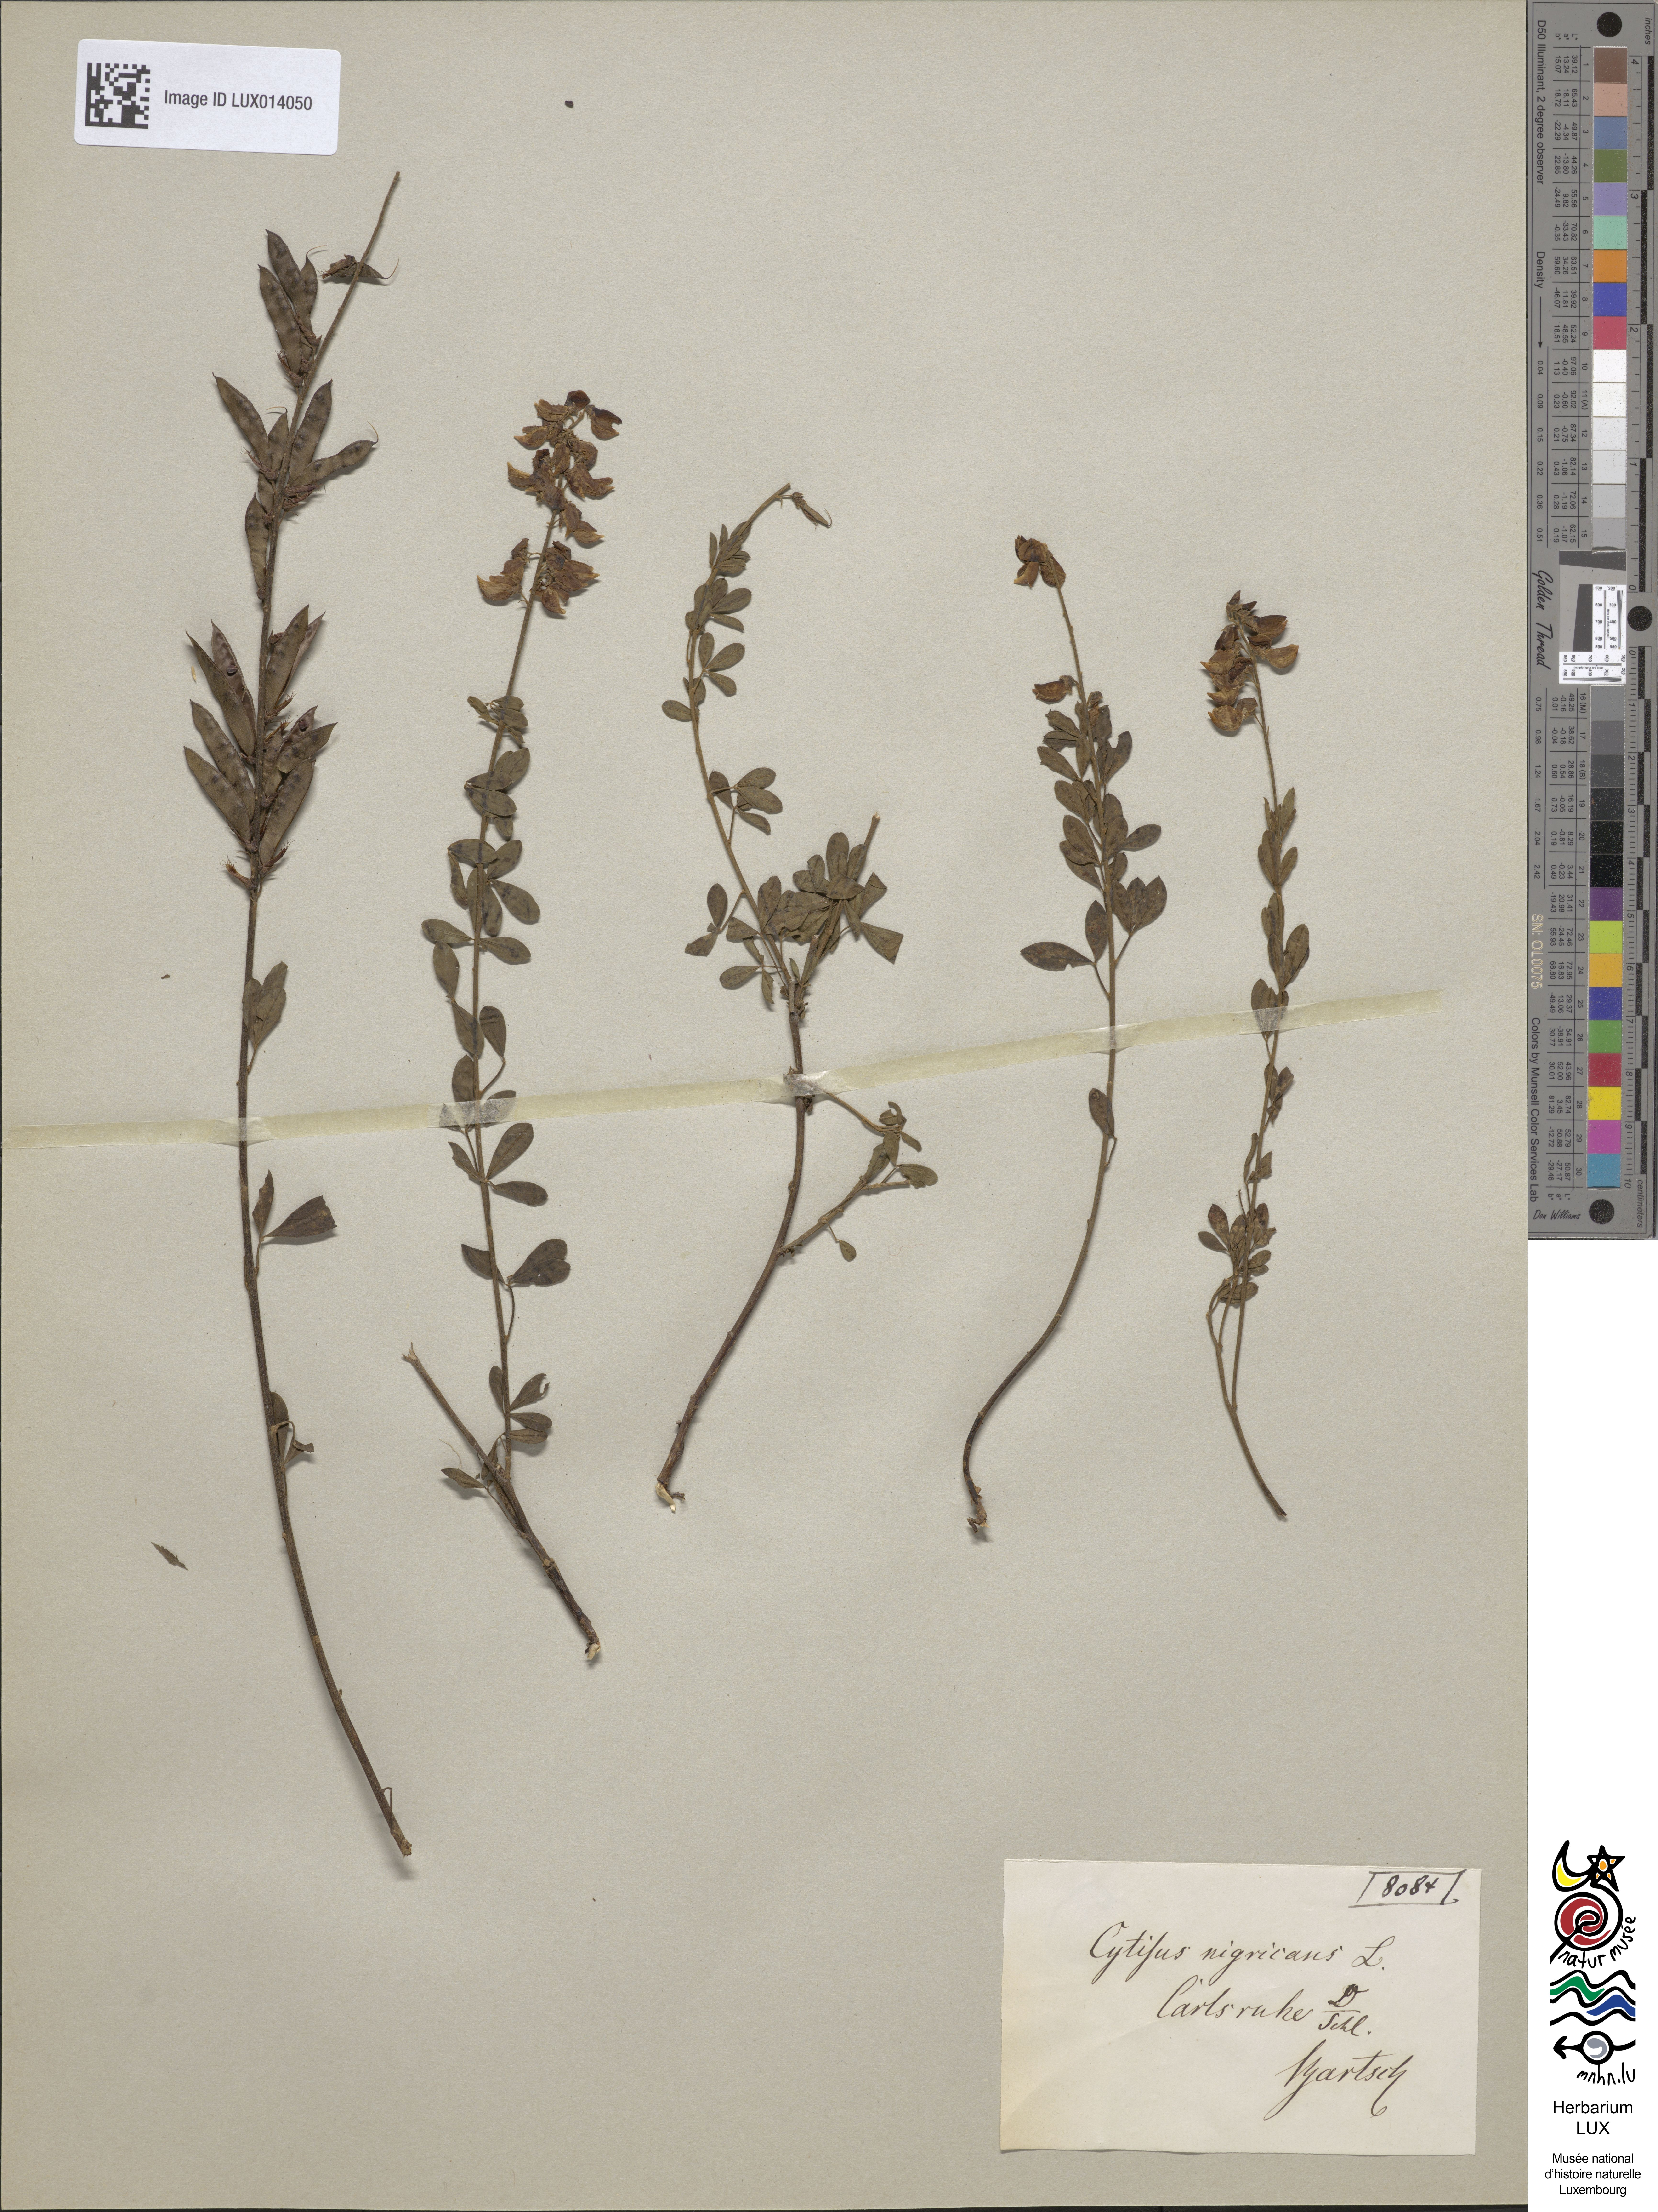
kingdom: Plantae
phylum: Tracheophyta
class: Magnoliopsida
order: Fabales
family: Fabaceae
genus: Cytisus
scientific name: Cytisus nigricans
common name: Black broom
